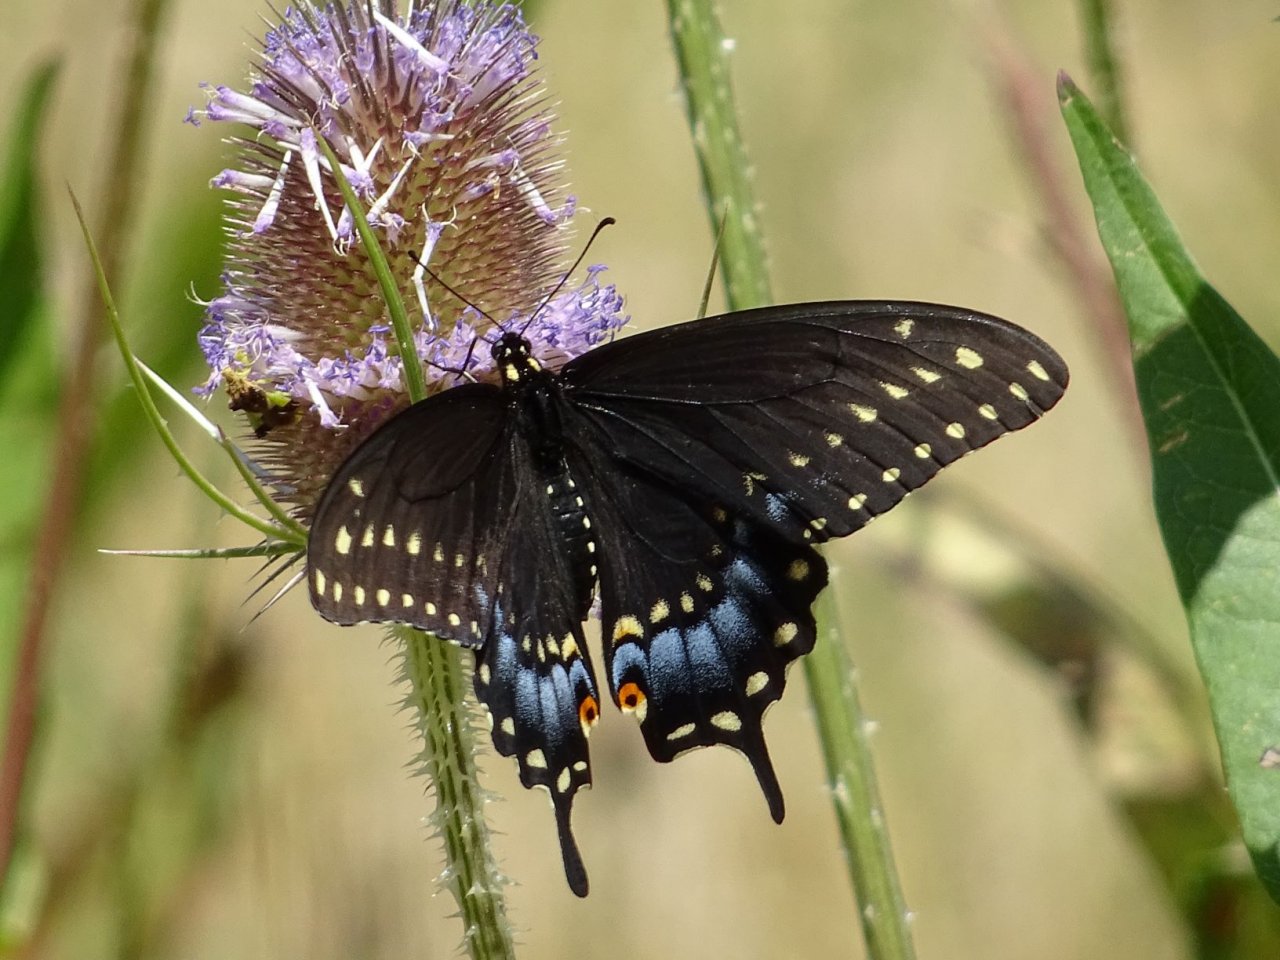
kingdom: Animalia
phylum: Arthropoda
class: Insecta
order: Lepidoptera
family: Papilionidae
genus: Papilio
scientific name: Papilio polyxenes
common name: Black Swallowtail
